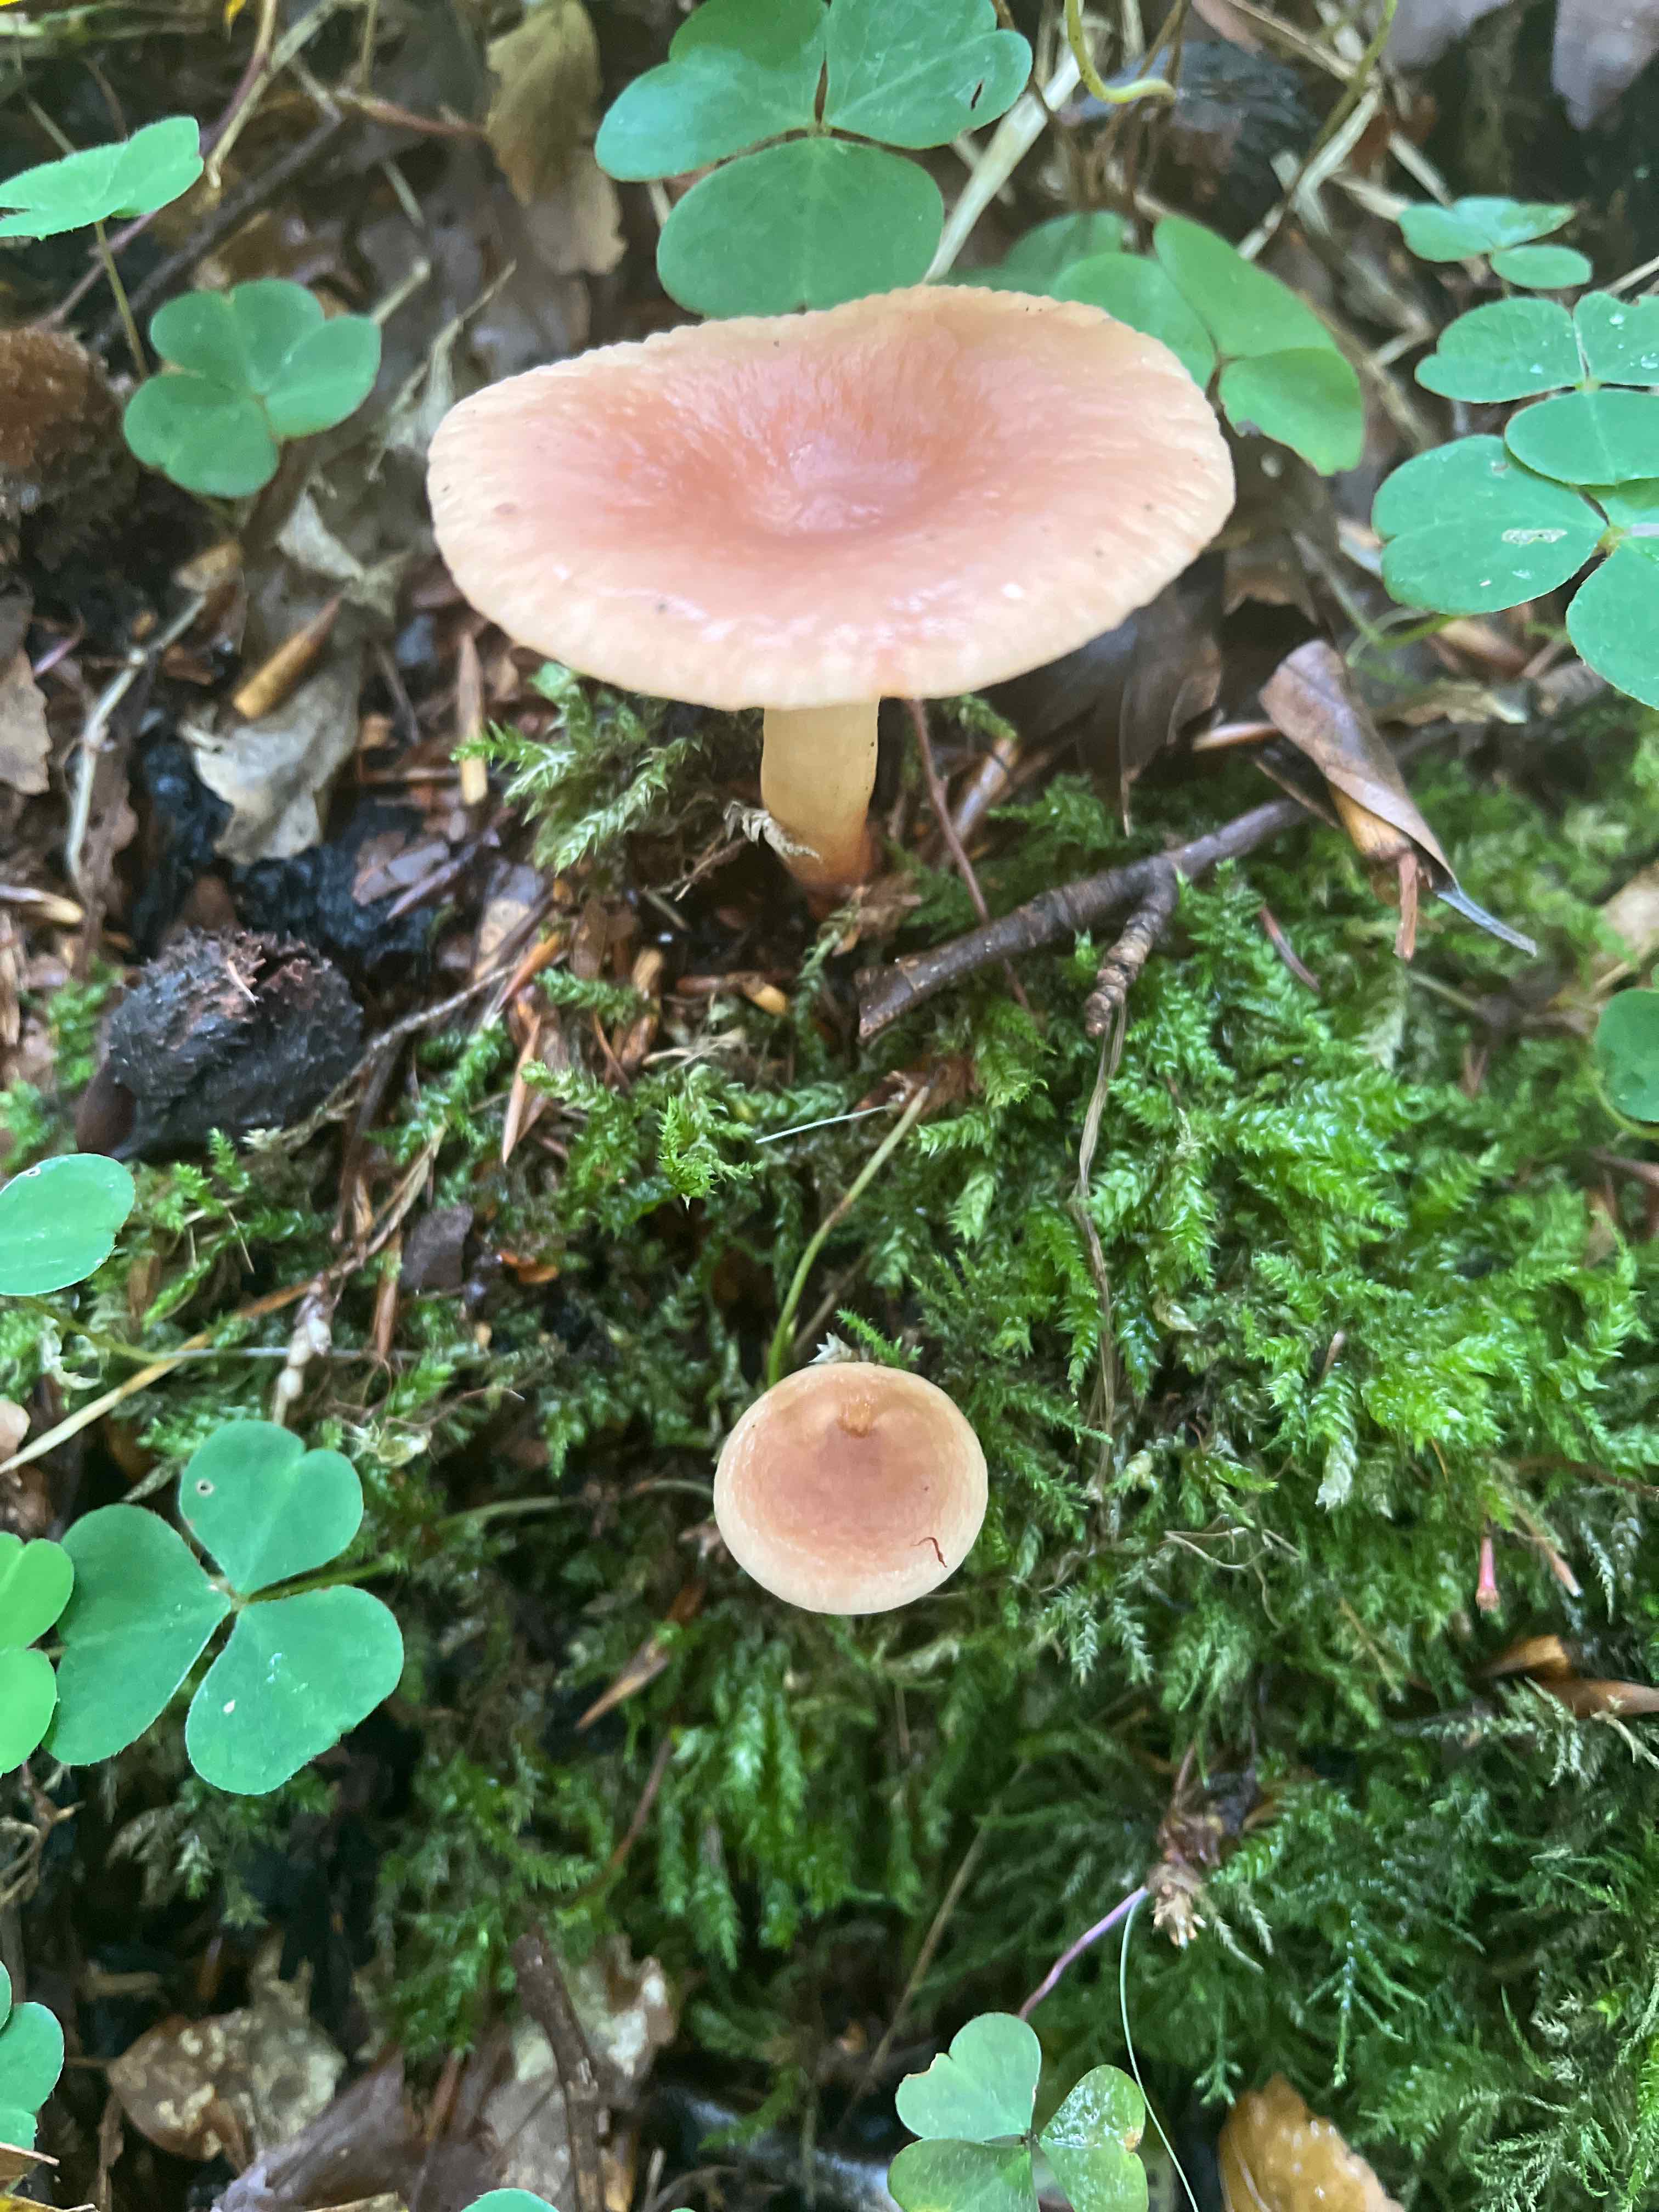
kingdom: Fungi
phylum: Basidiomycota
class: Agaricomycetes
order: Russulales
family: Russulaceae
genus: Lactarius
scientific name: Lactarius tabidus
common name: rynket mælkehat
